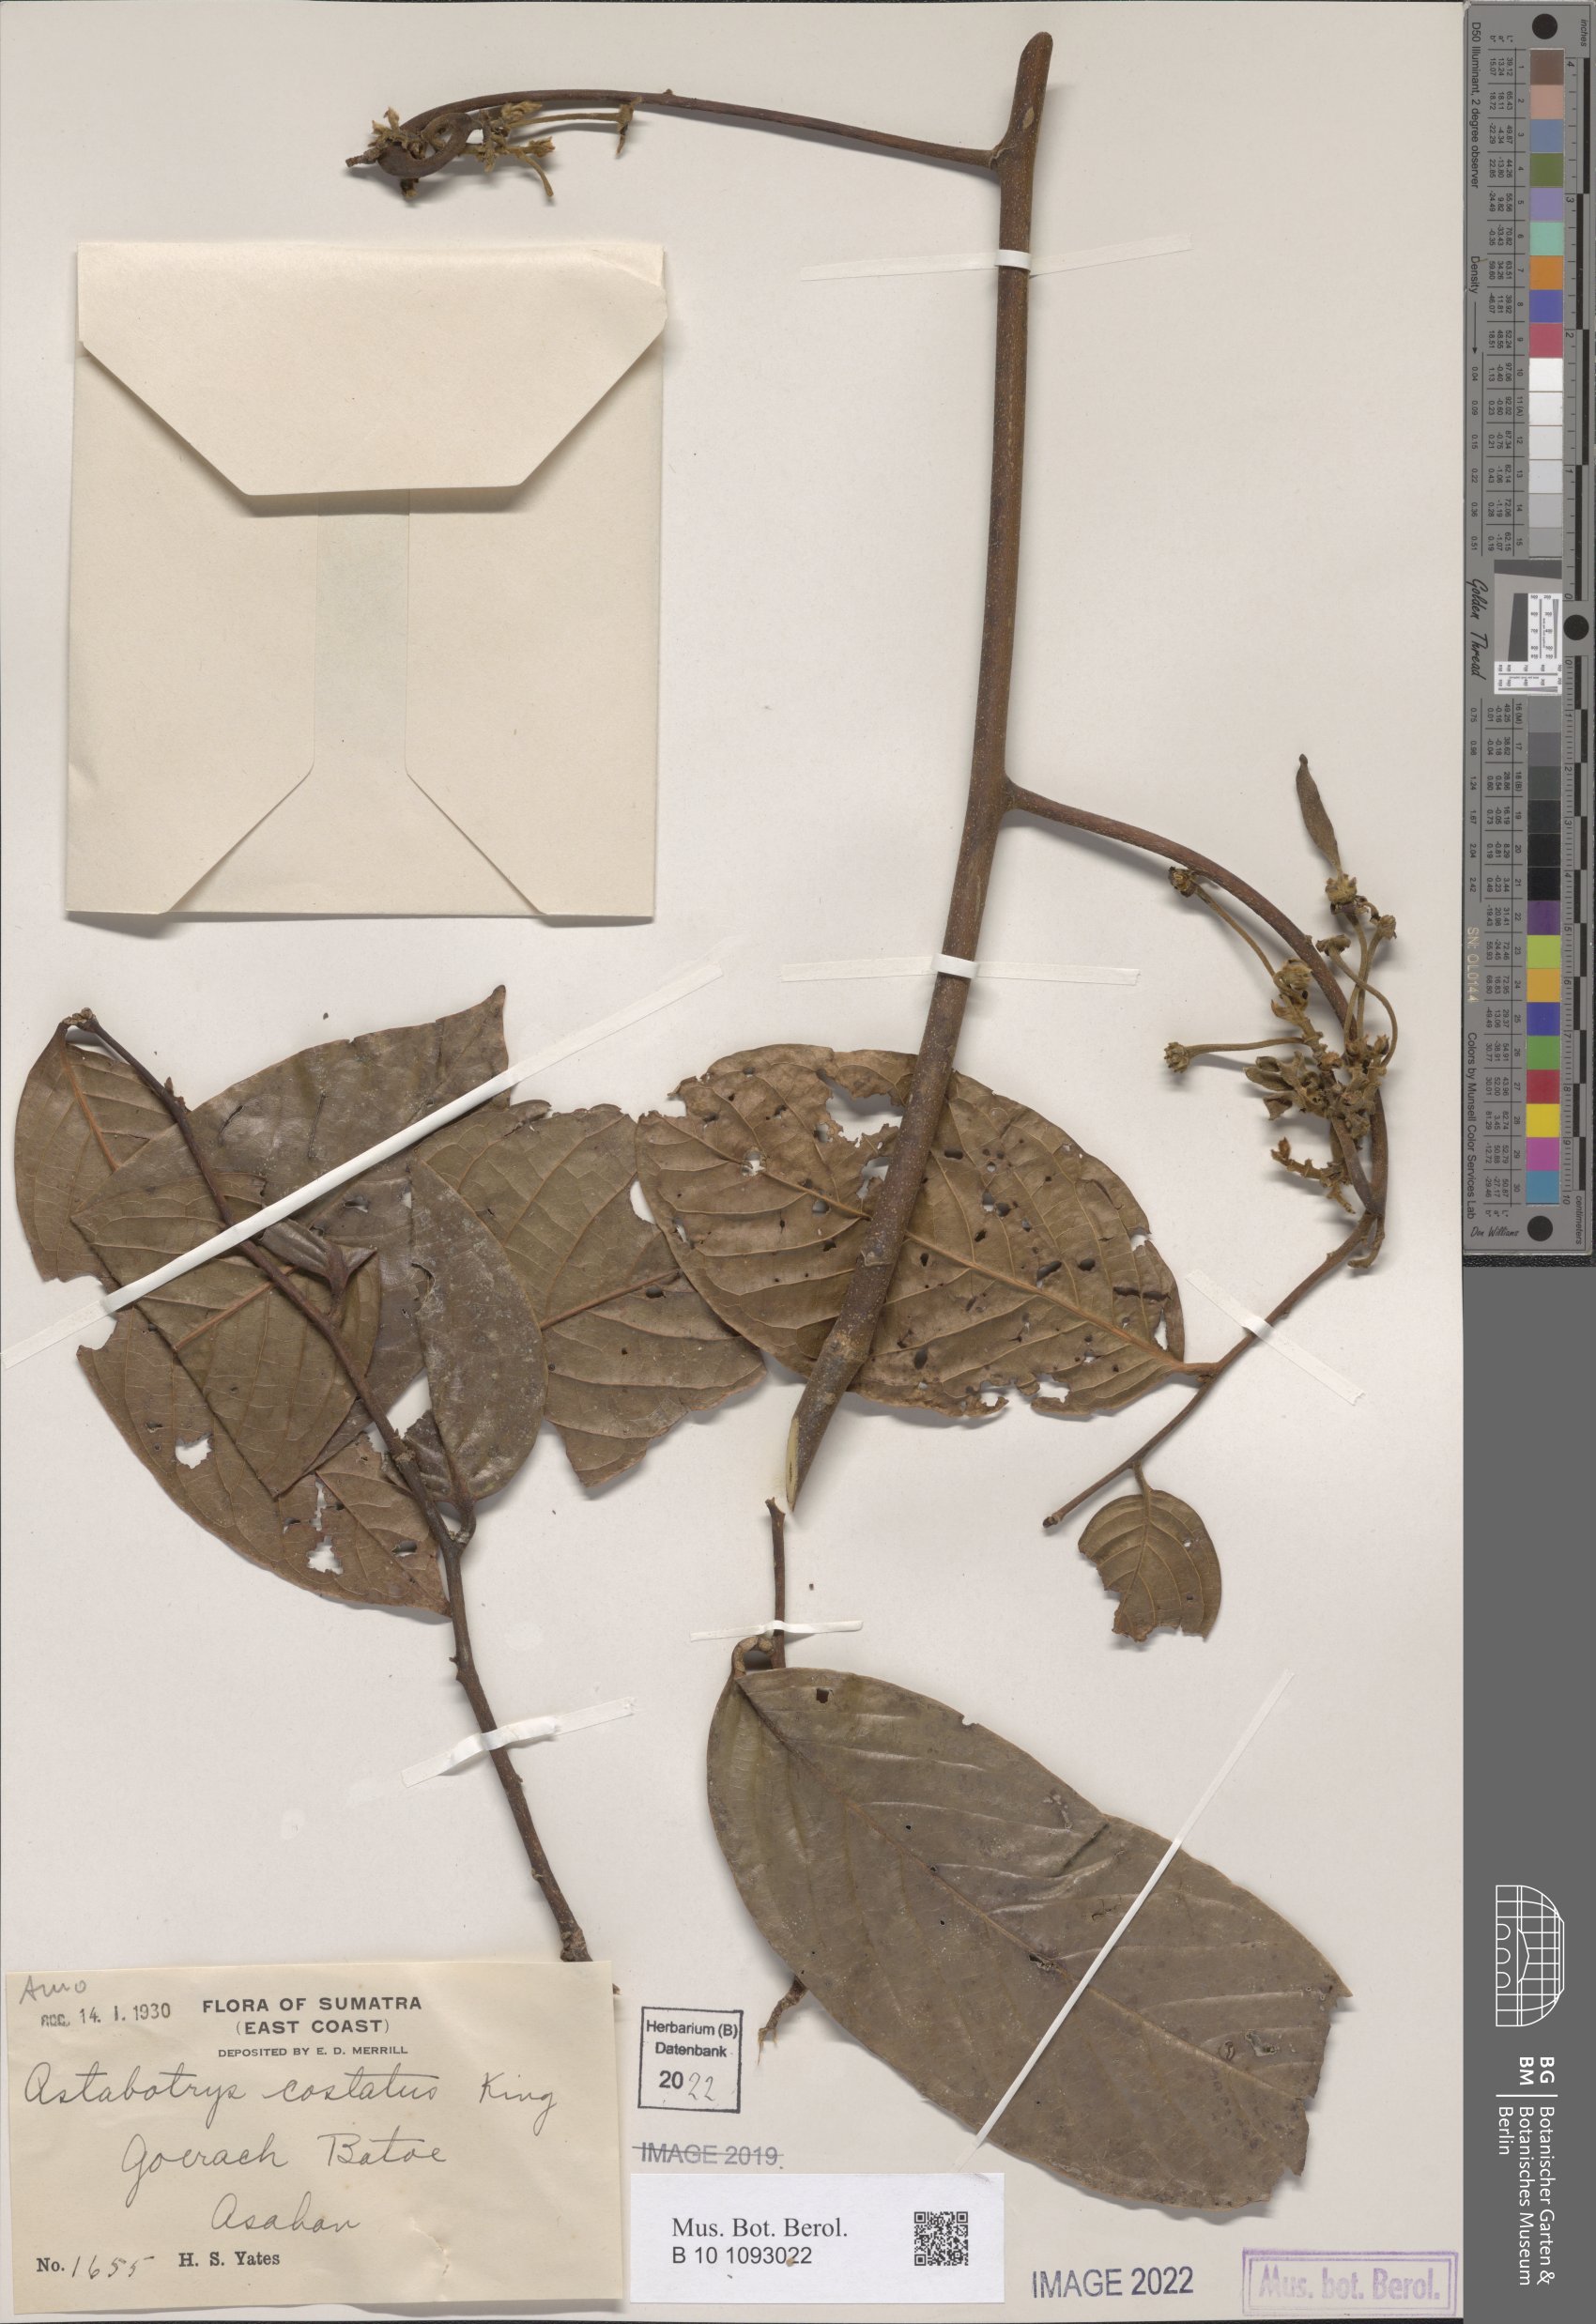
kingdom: Plantae
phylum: Tracheophyta
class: Magnoliopsida
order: Magnoliales
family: Annonaceae
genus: Artabotrys
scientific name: Artabotrys costatus
